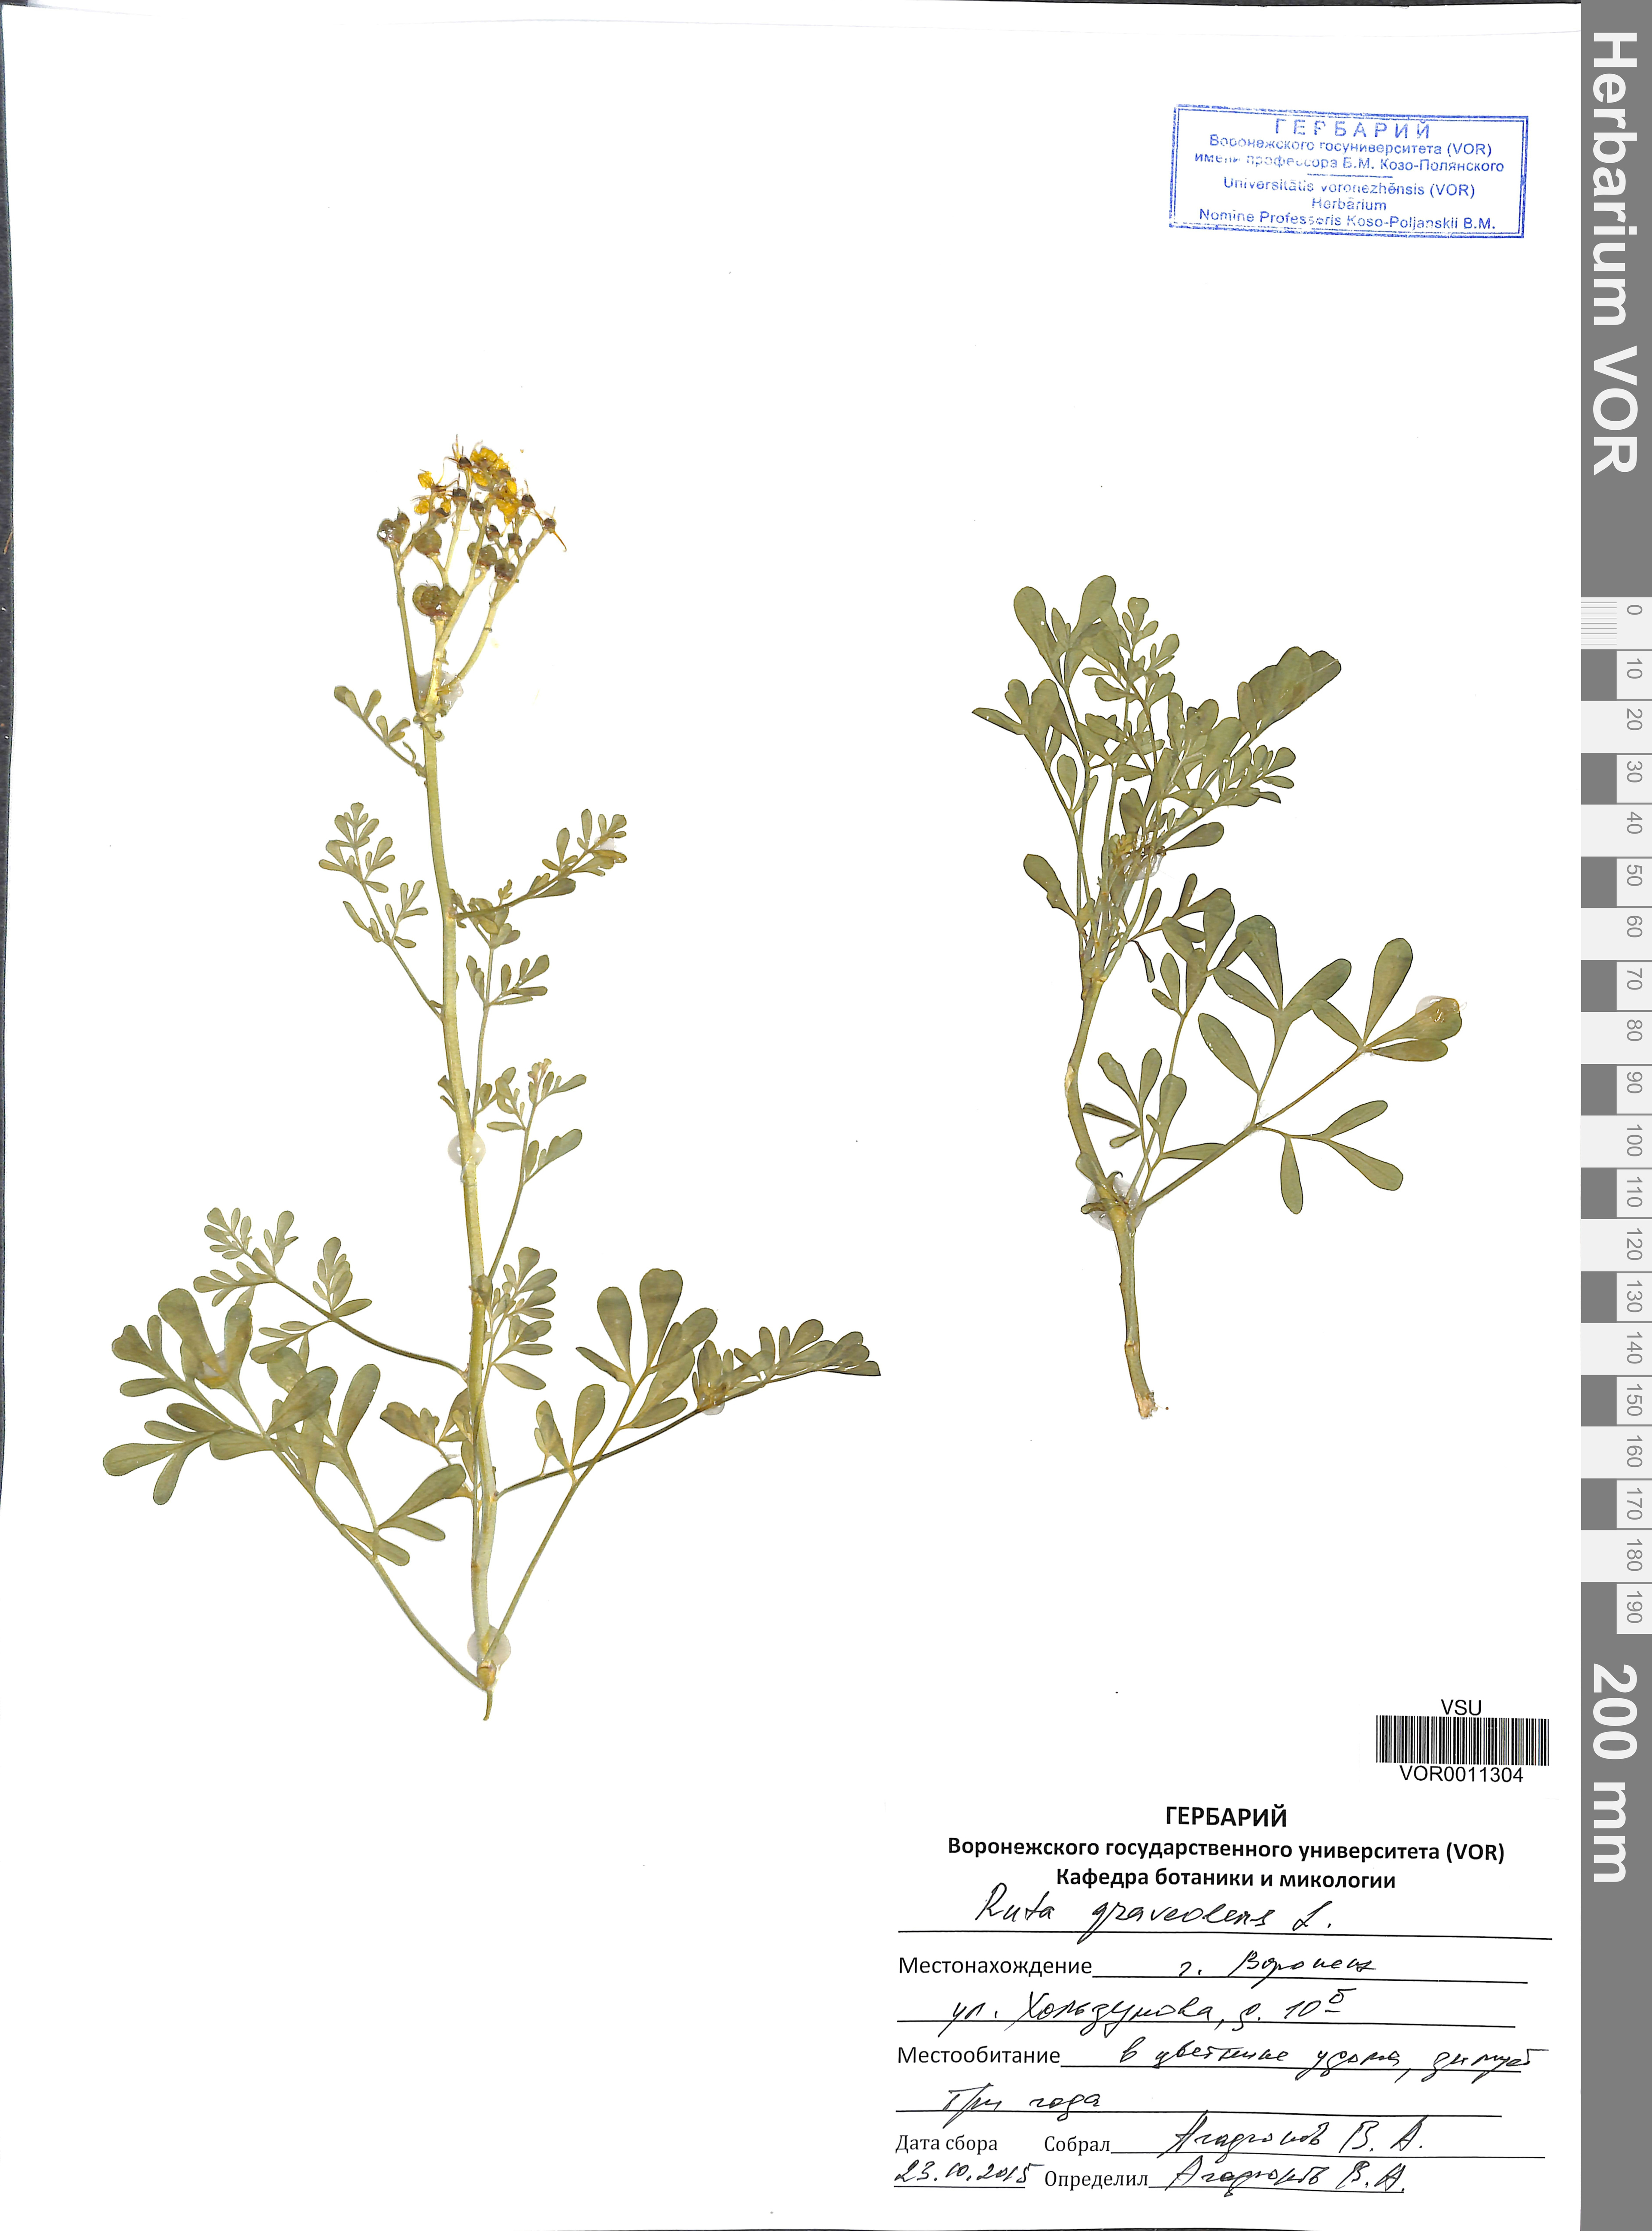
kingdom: Plantae
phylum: Tracheophyta
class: Magnoliopsida
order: Sapindales
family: Rutaceae
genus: Ruta
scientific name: Ruta graveolens
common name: Common rue
